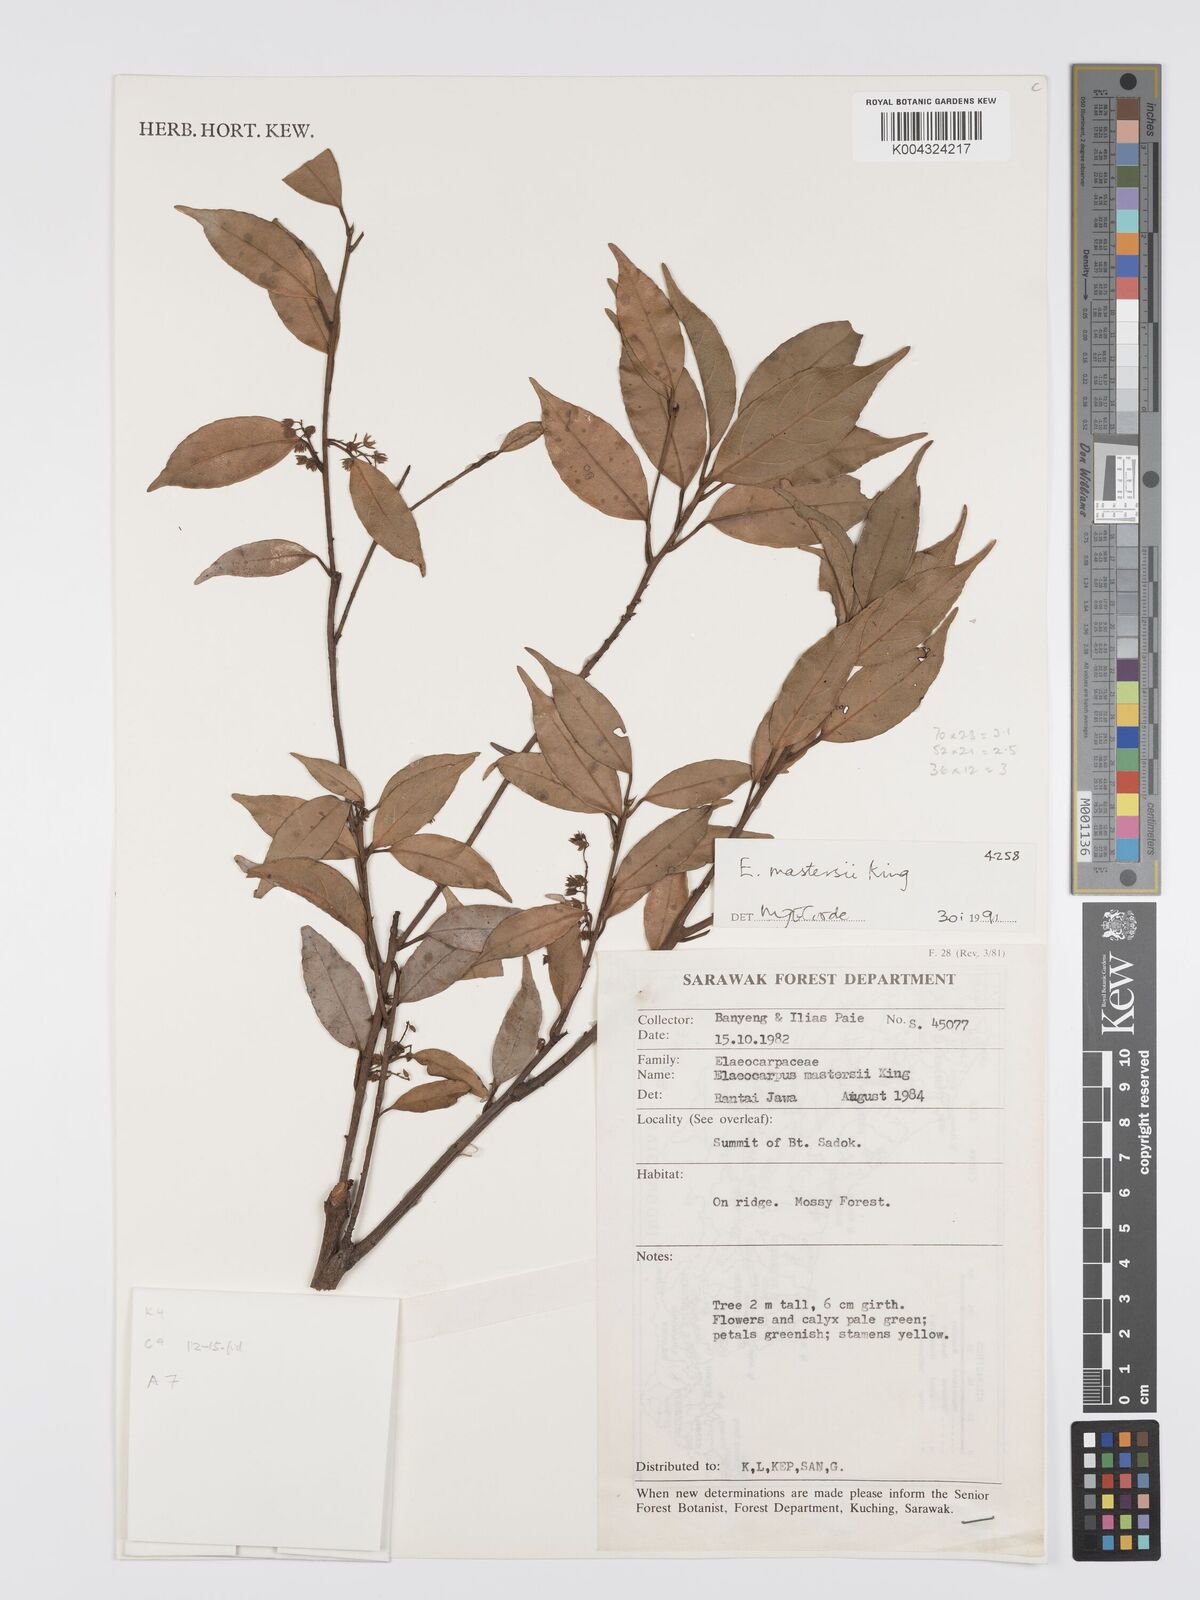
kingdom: Plantae
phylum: Tracheophyta
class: Magnoliopsida
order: Oxalidales
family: Elaeocarpaceae
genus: Elaeocarpus
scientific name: Elaeocarpus mastersii
